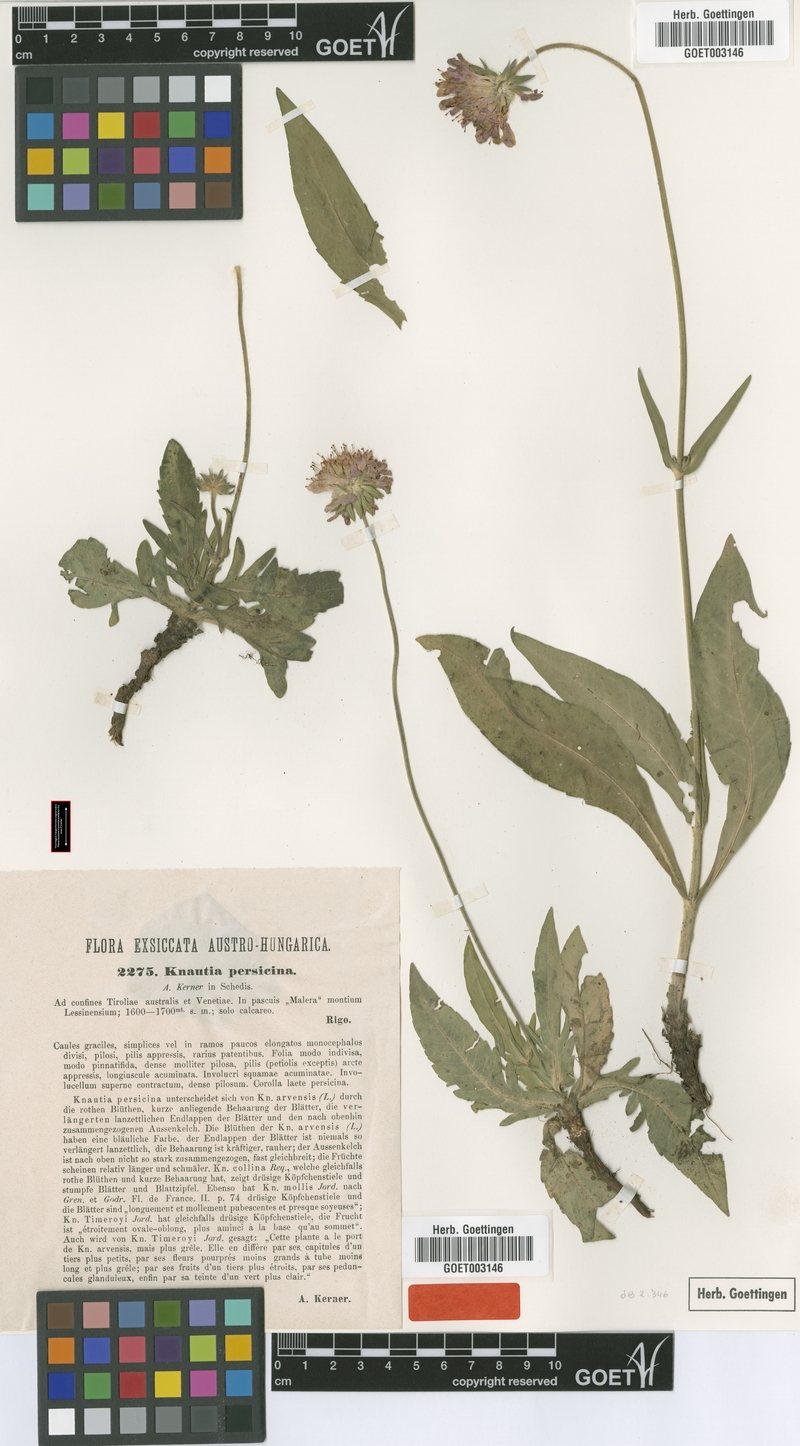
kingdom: Plantae
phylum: Tracheophyta
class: Magnoliopsida
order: Dipsacales
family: Caprifoliaceae
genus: Knautia
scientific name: Knautia persicina
